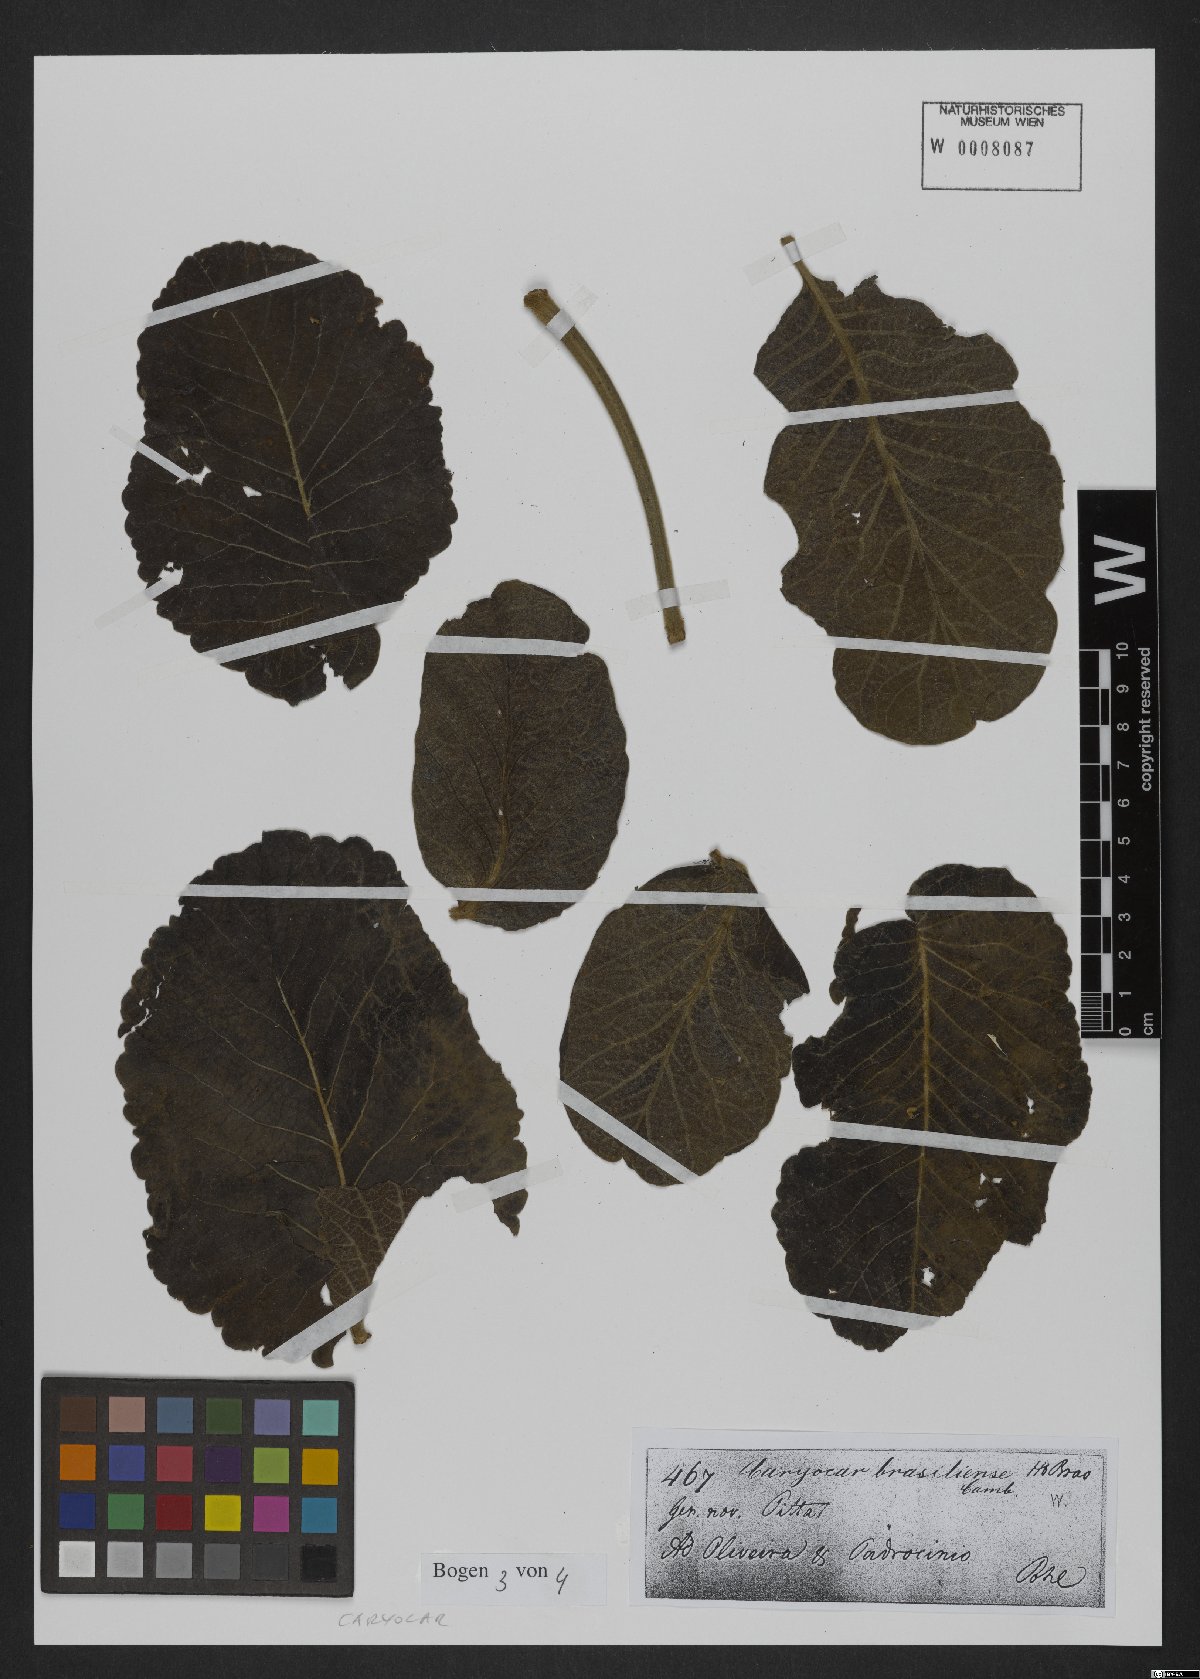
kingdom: Plantae
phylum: Tracheophyta
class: Magnoliopsida
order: Malpighiales
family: Caryocaraceae
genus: Caryocar
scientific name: Caryocar brasiliense
